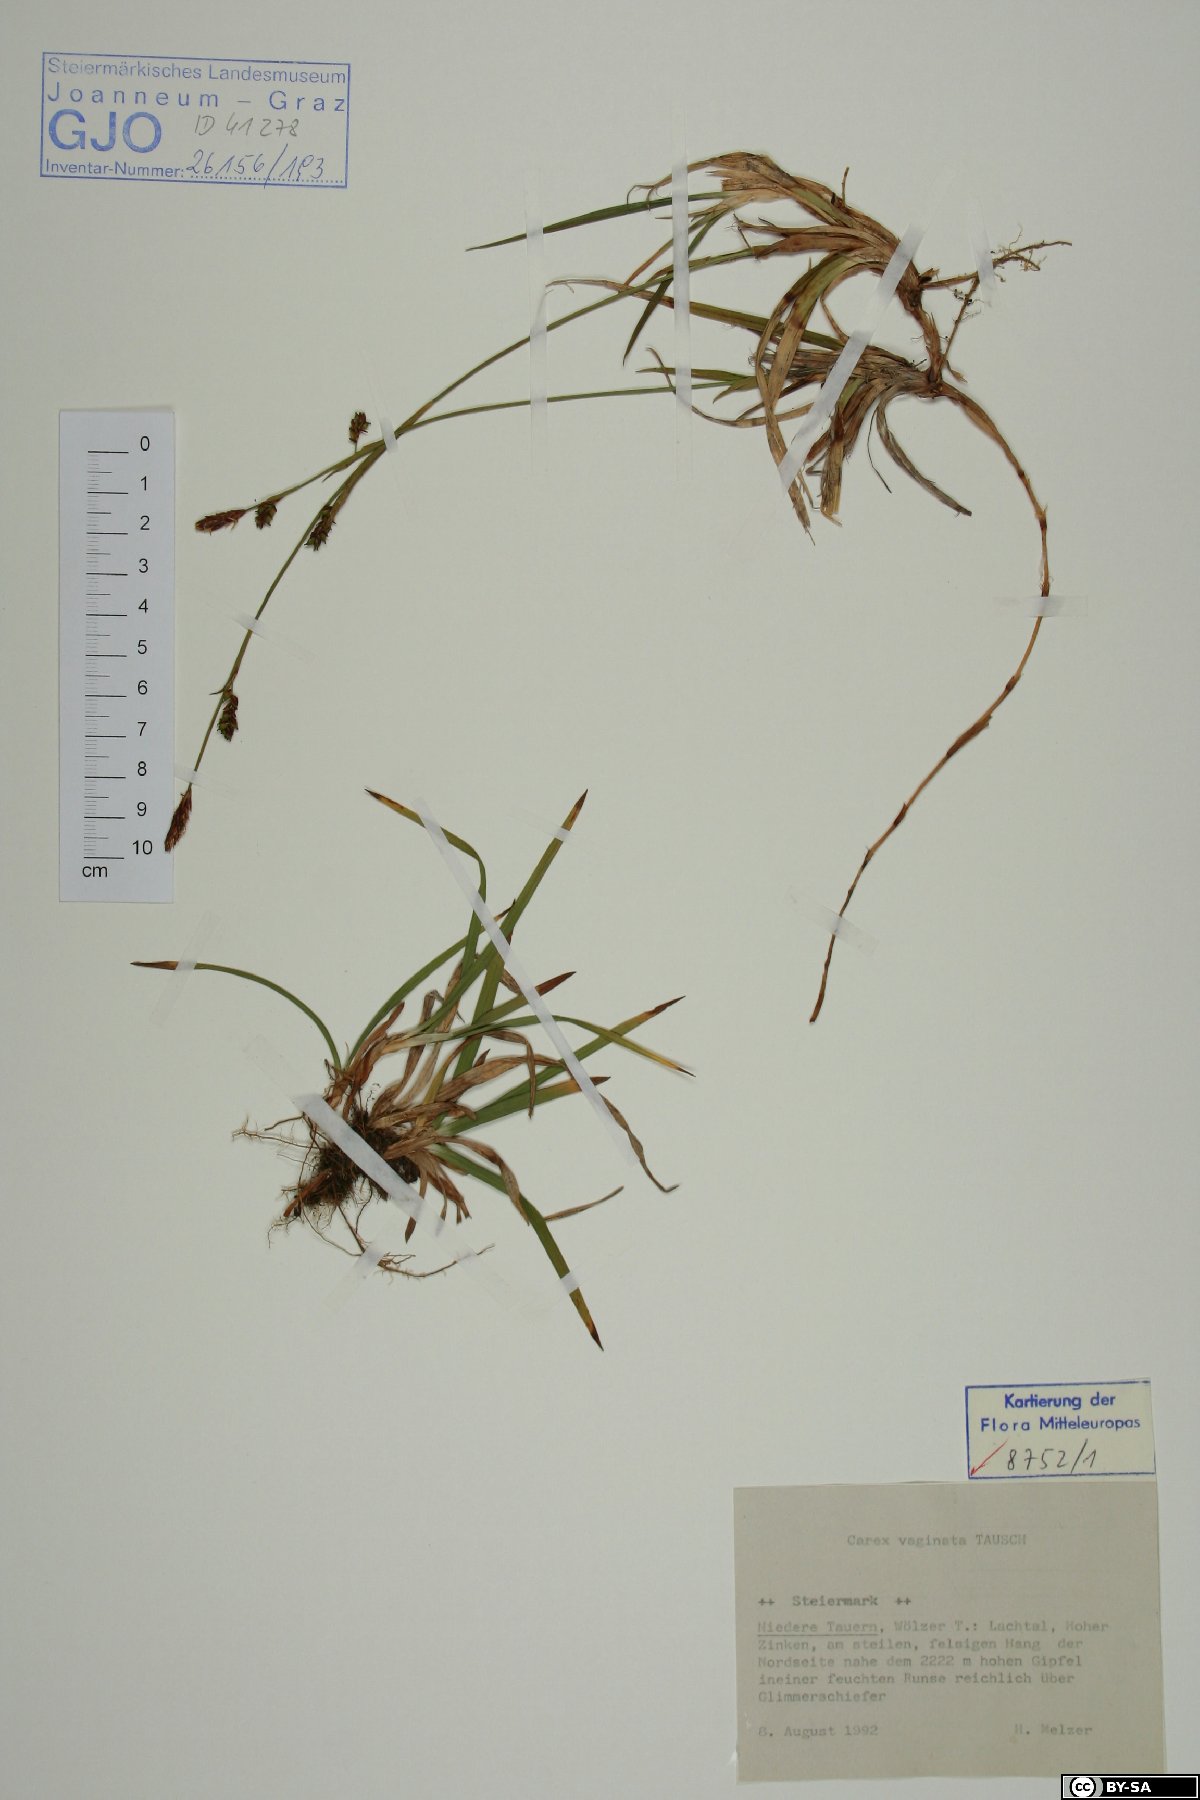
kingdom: Plantae
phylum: Tracheophyta
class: Liliopsida
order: Poales
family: Cyperaceae
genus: Carex
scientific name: Carex vaginata
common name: Sheathed sedge
